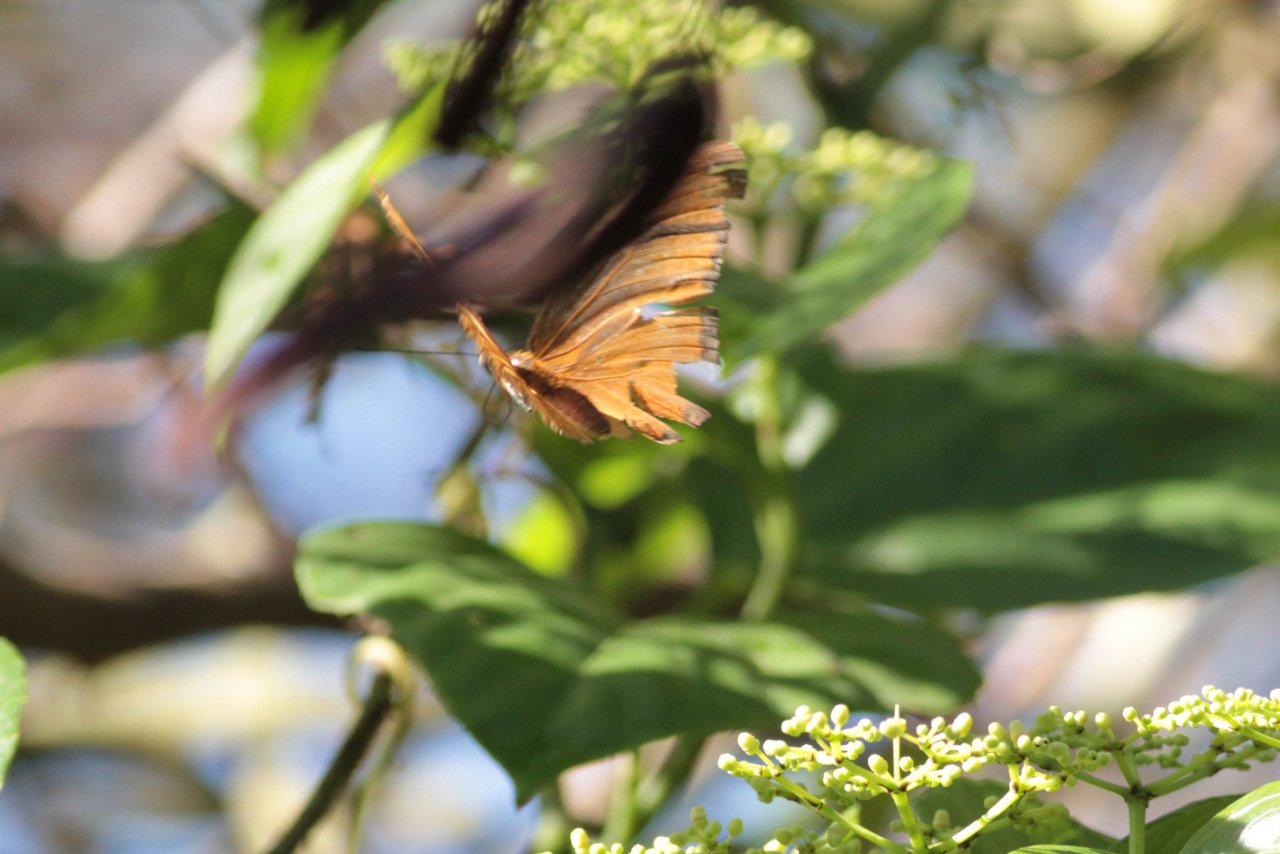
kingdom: Animalia
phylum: Arthropoda
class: Insecta
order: Lepidoptera
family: Nymphalidae
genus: Dryas
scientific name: Dryas iulia
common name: Julia
